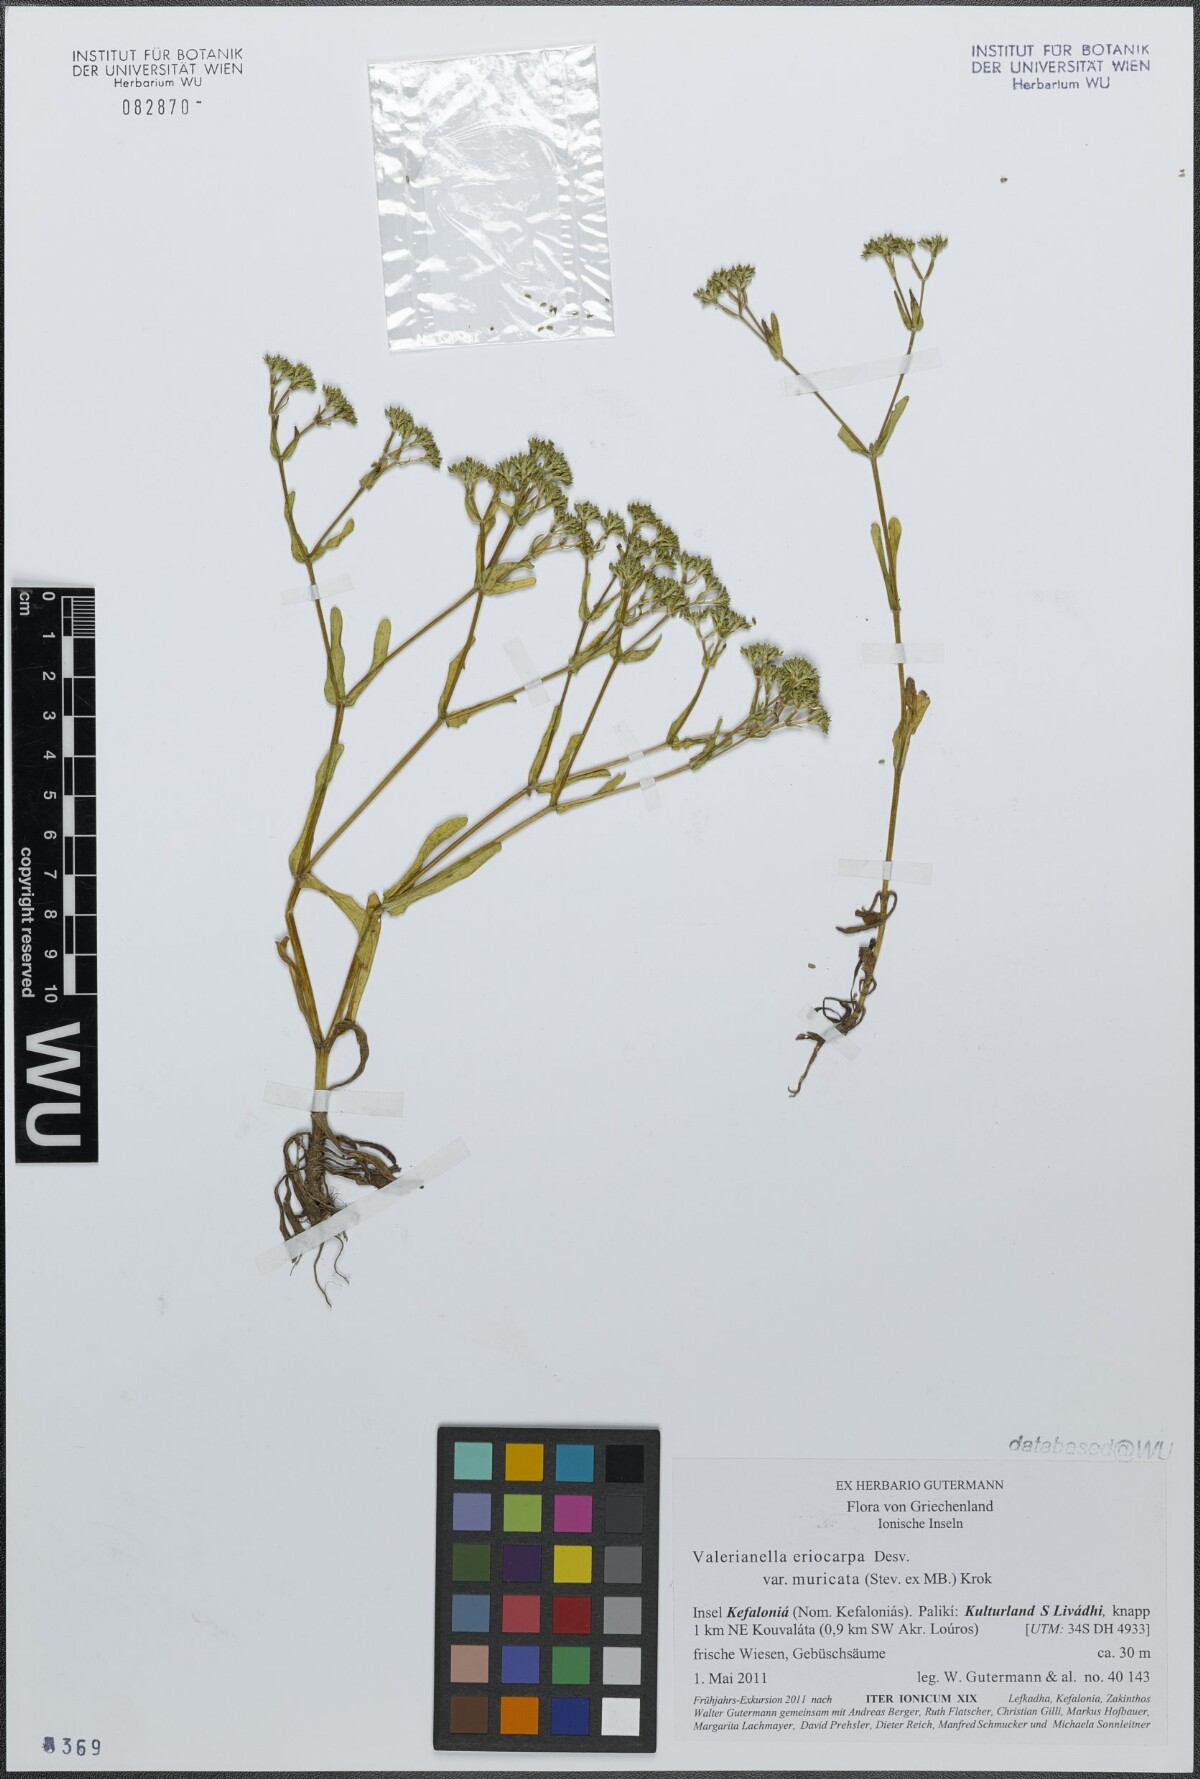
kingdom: Plantae
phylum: Tracheophyta
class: Magnoliopsida
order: Dipsacales
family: Caprifoliaceae
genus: Valerianella
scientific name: Valerianella eriocarpa
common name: Hairy-fruited cornsalad
